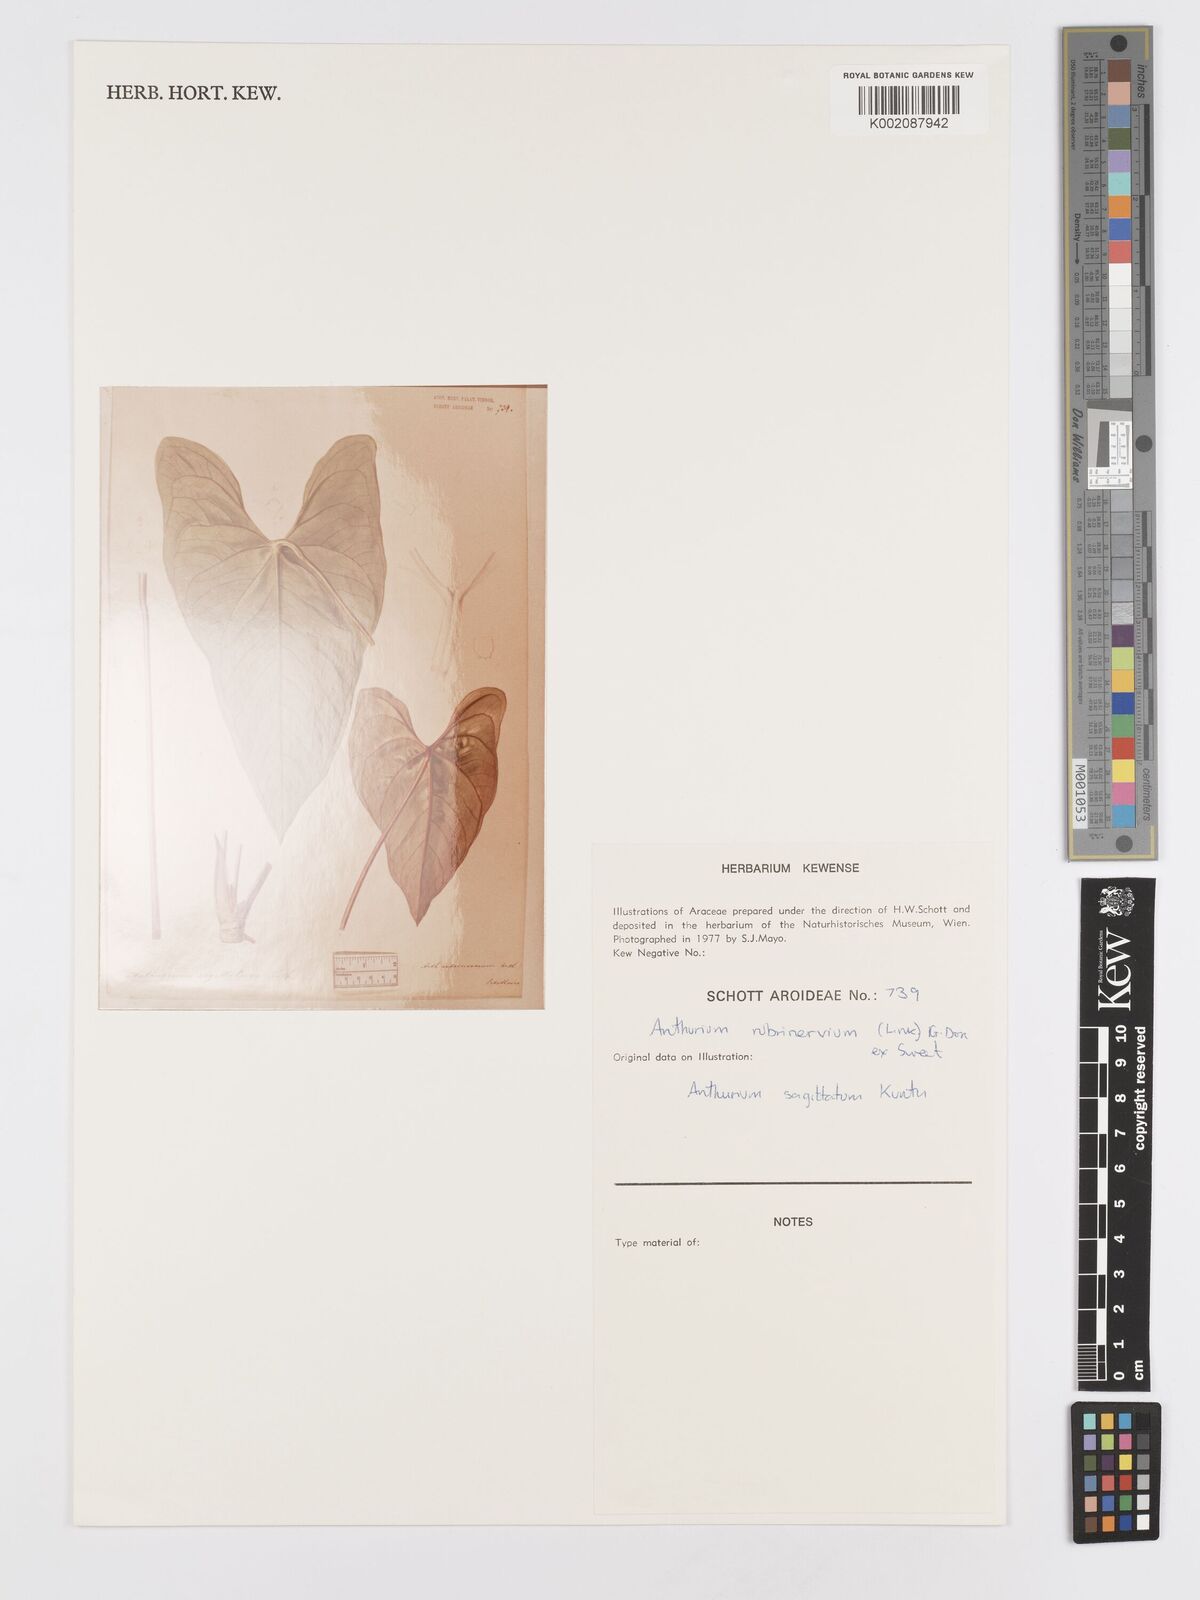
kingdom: Plantae
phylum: Tracheophyta
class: Liliopsida
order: Alismatales
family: Araceae
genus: Anthurium
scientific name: Anthurium sagittatum
